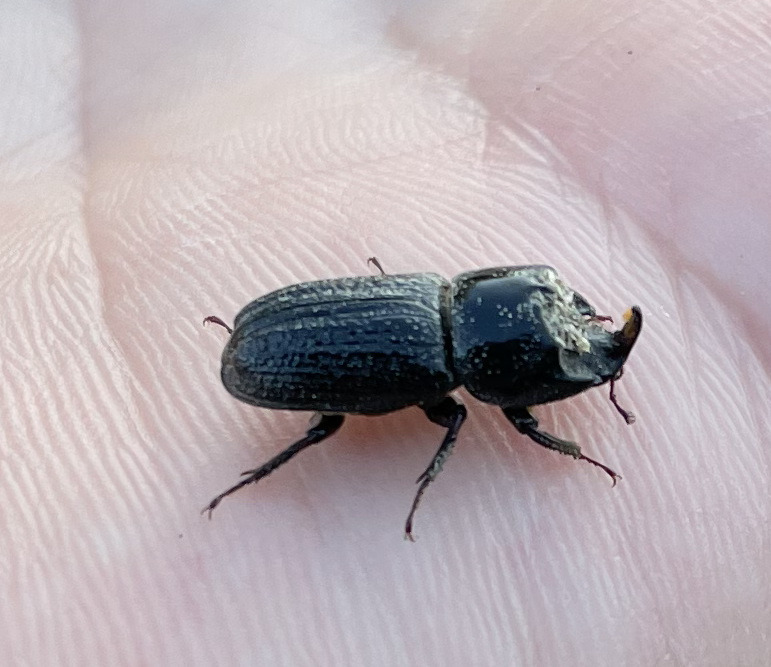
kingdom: Animalia
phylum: Arthropoda
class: Insecta
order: Coleoptera
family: Lucanidae
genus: Sinodendron
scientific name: Sinodendron cylindricum
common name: Valsehjort
